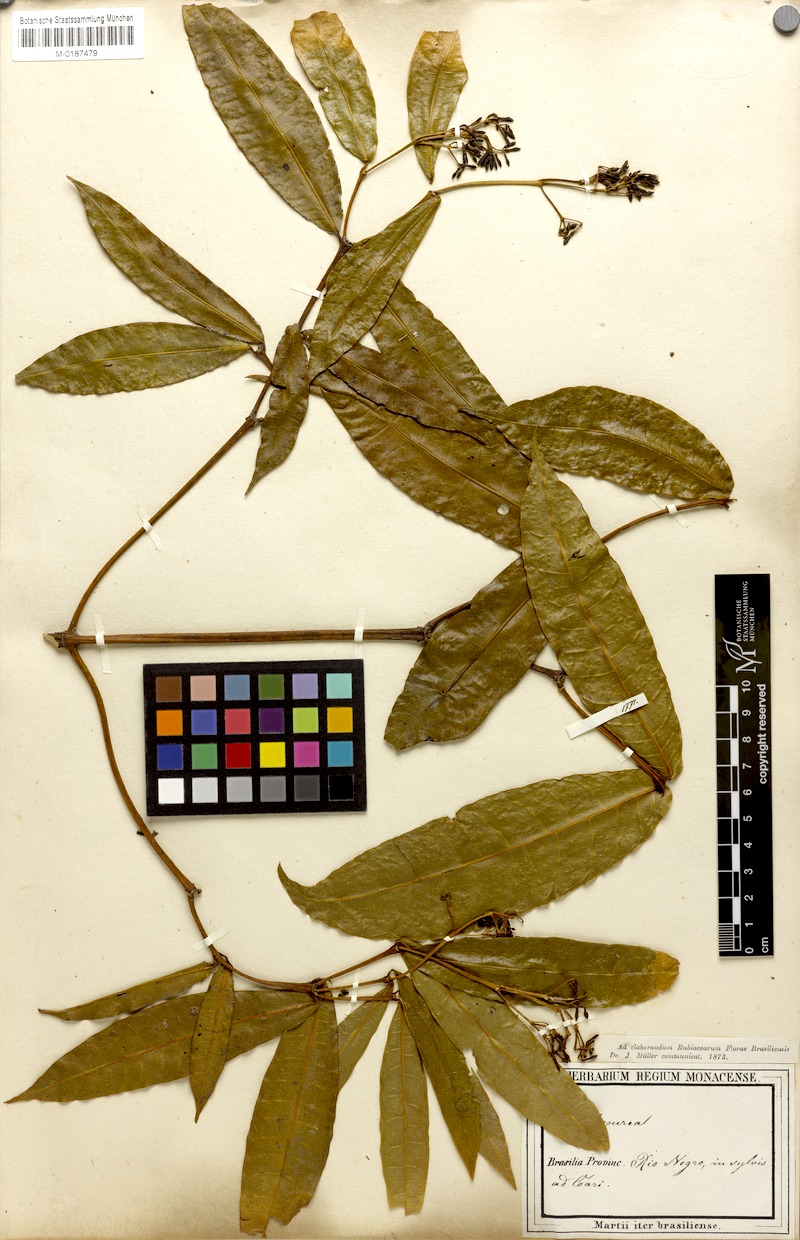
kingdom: Plantae
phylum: Tracheophyta
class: Magnoliopsida
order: Gentianales
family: Rubiaceae
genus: Faramea
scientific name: Faramea sessilifolia
